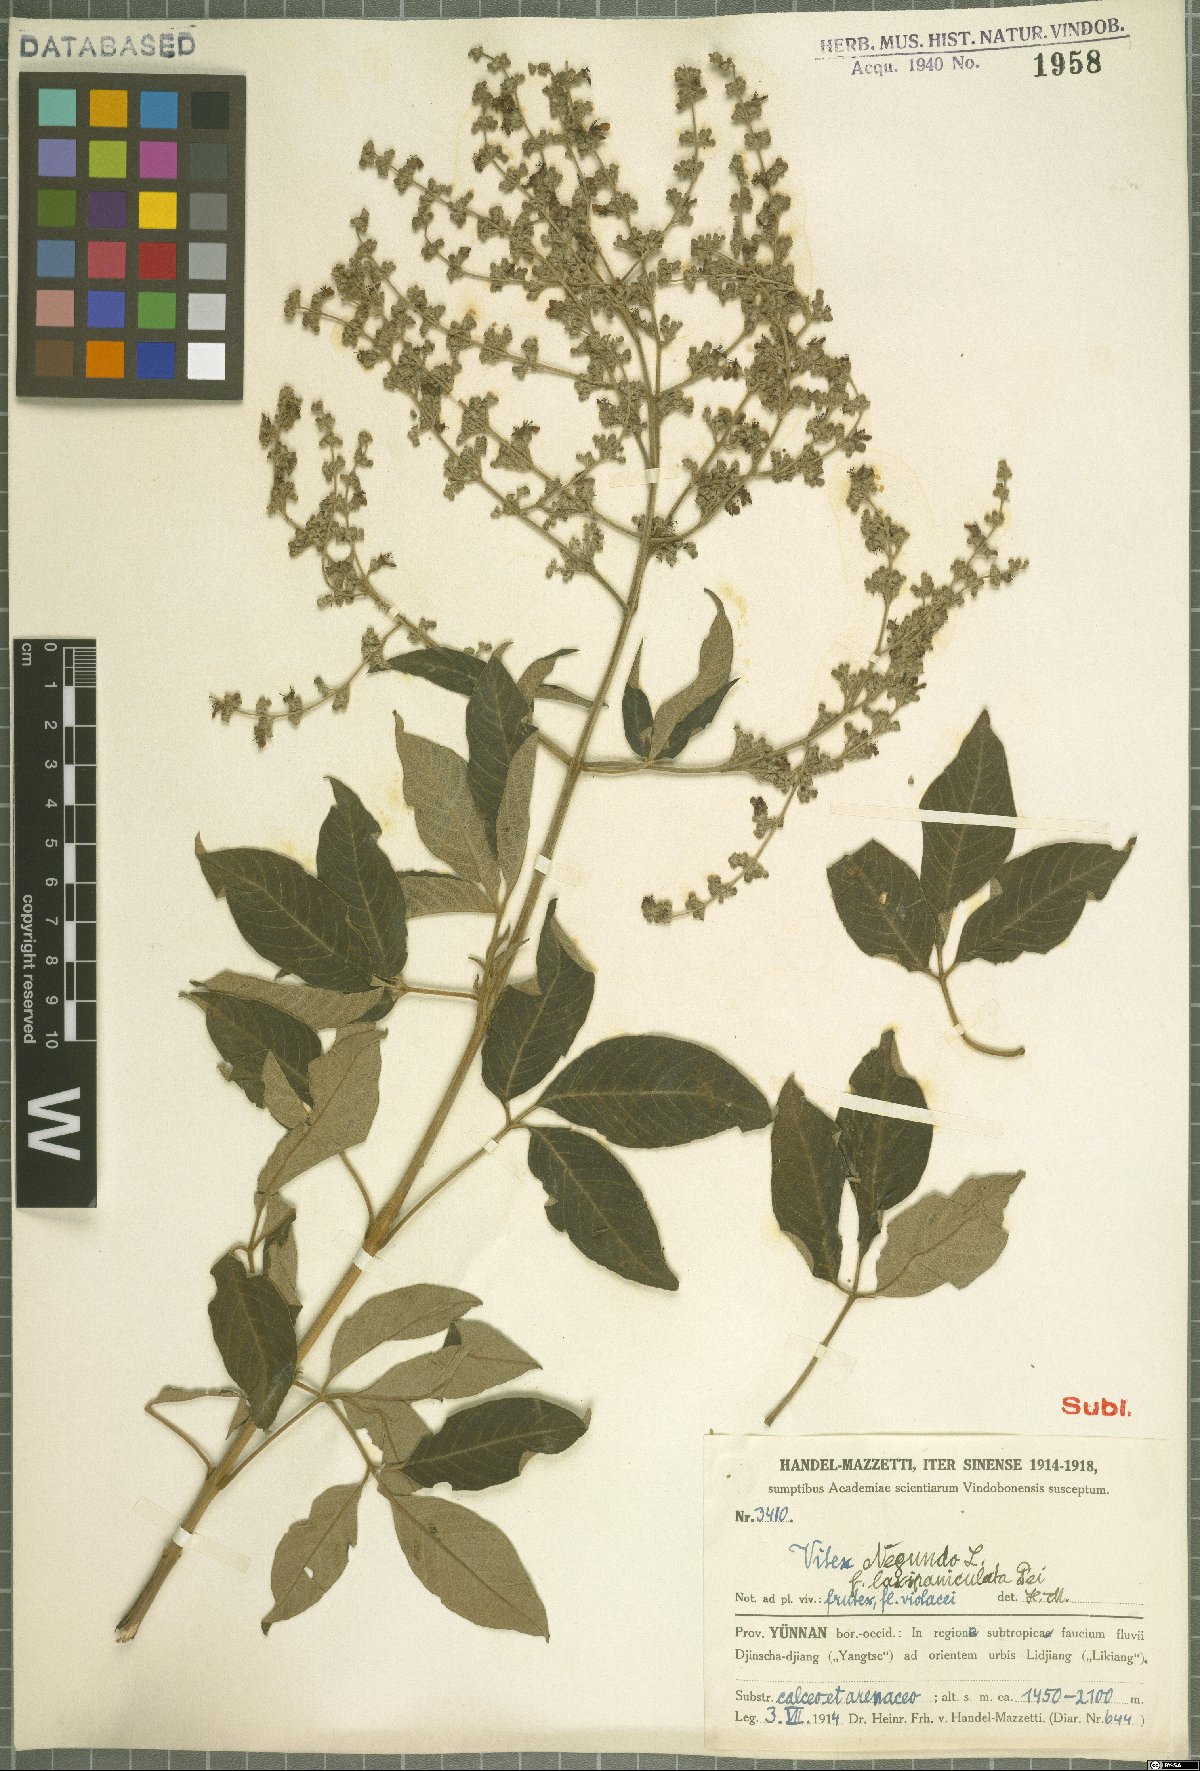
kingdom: Plantae
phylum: Tracheophyta
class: Magnoliopsida
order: Lamiales
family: Lamiaceae
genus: Vitex
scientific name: Vitex negundo
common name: Chinese chastetree
